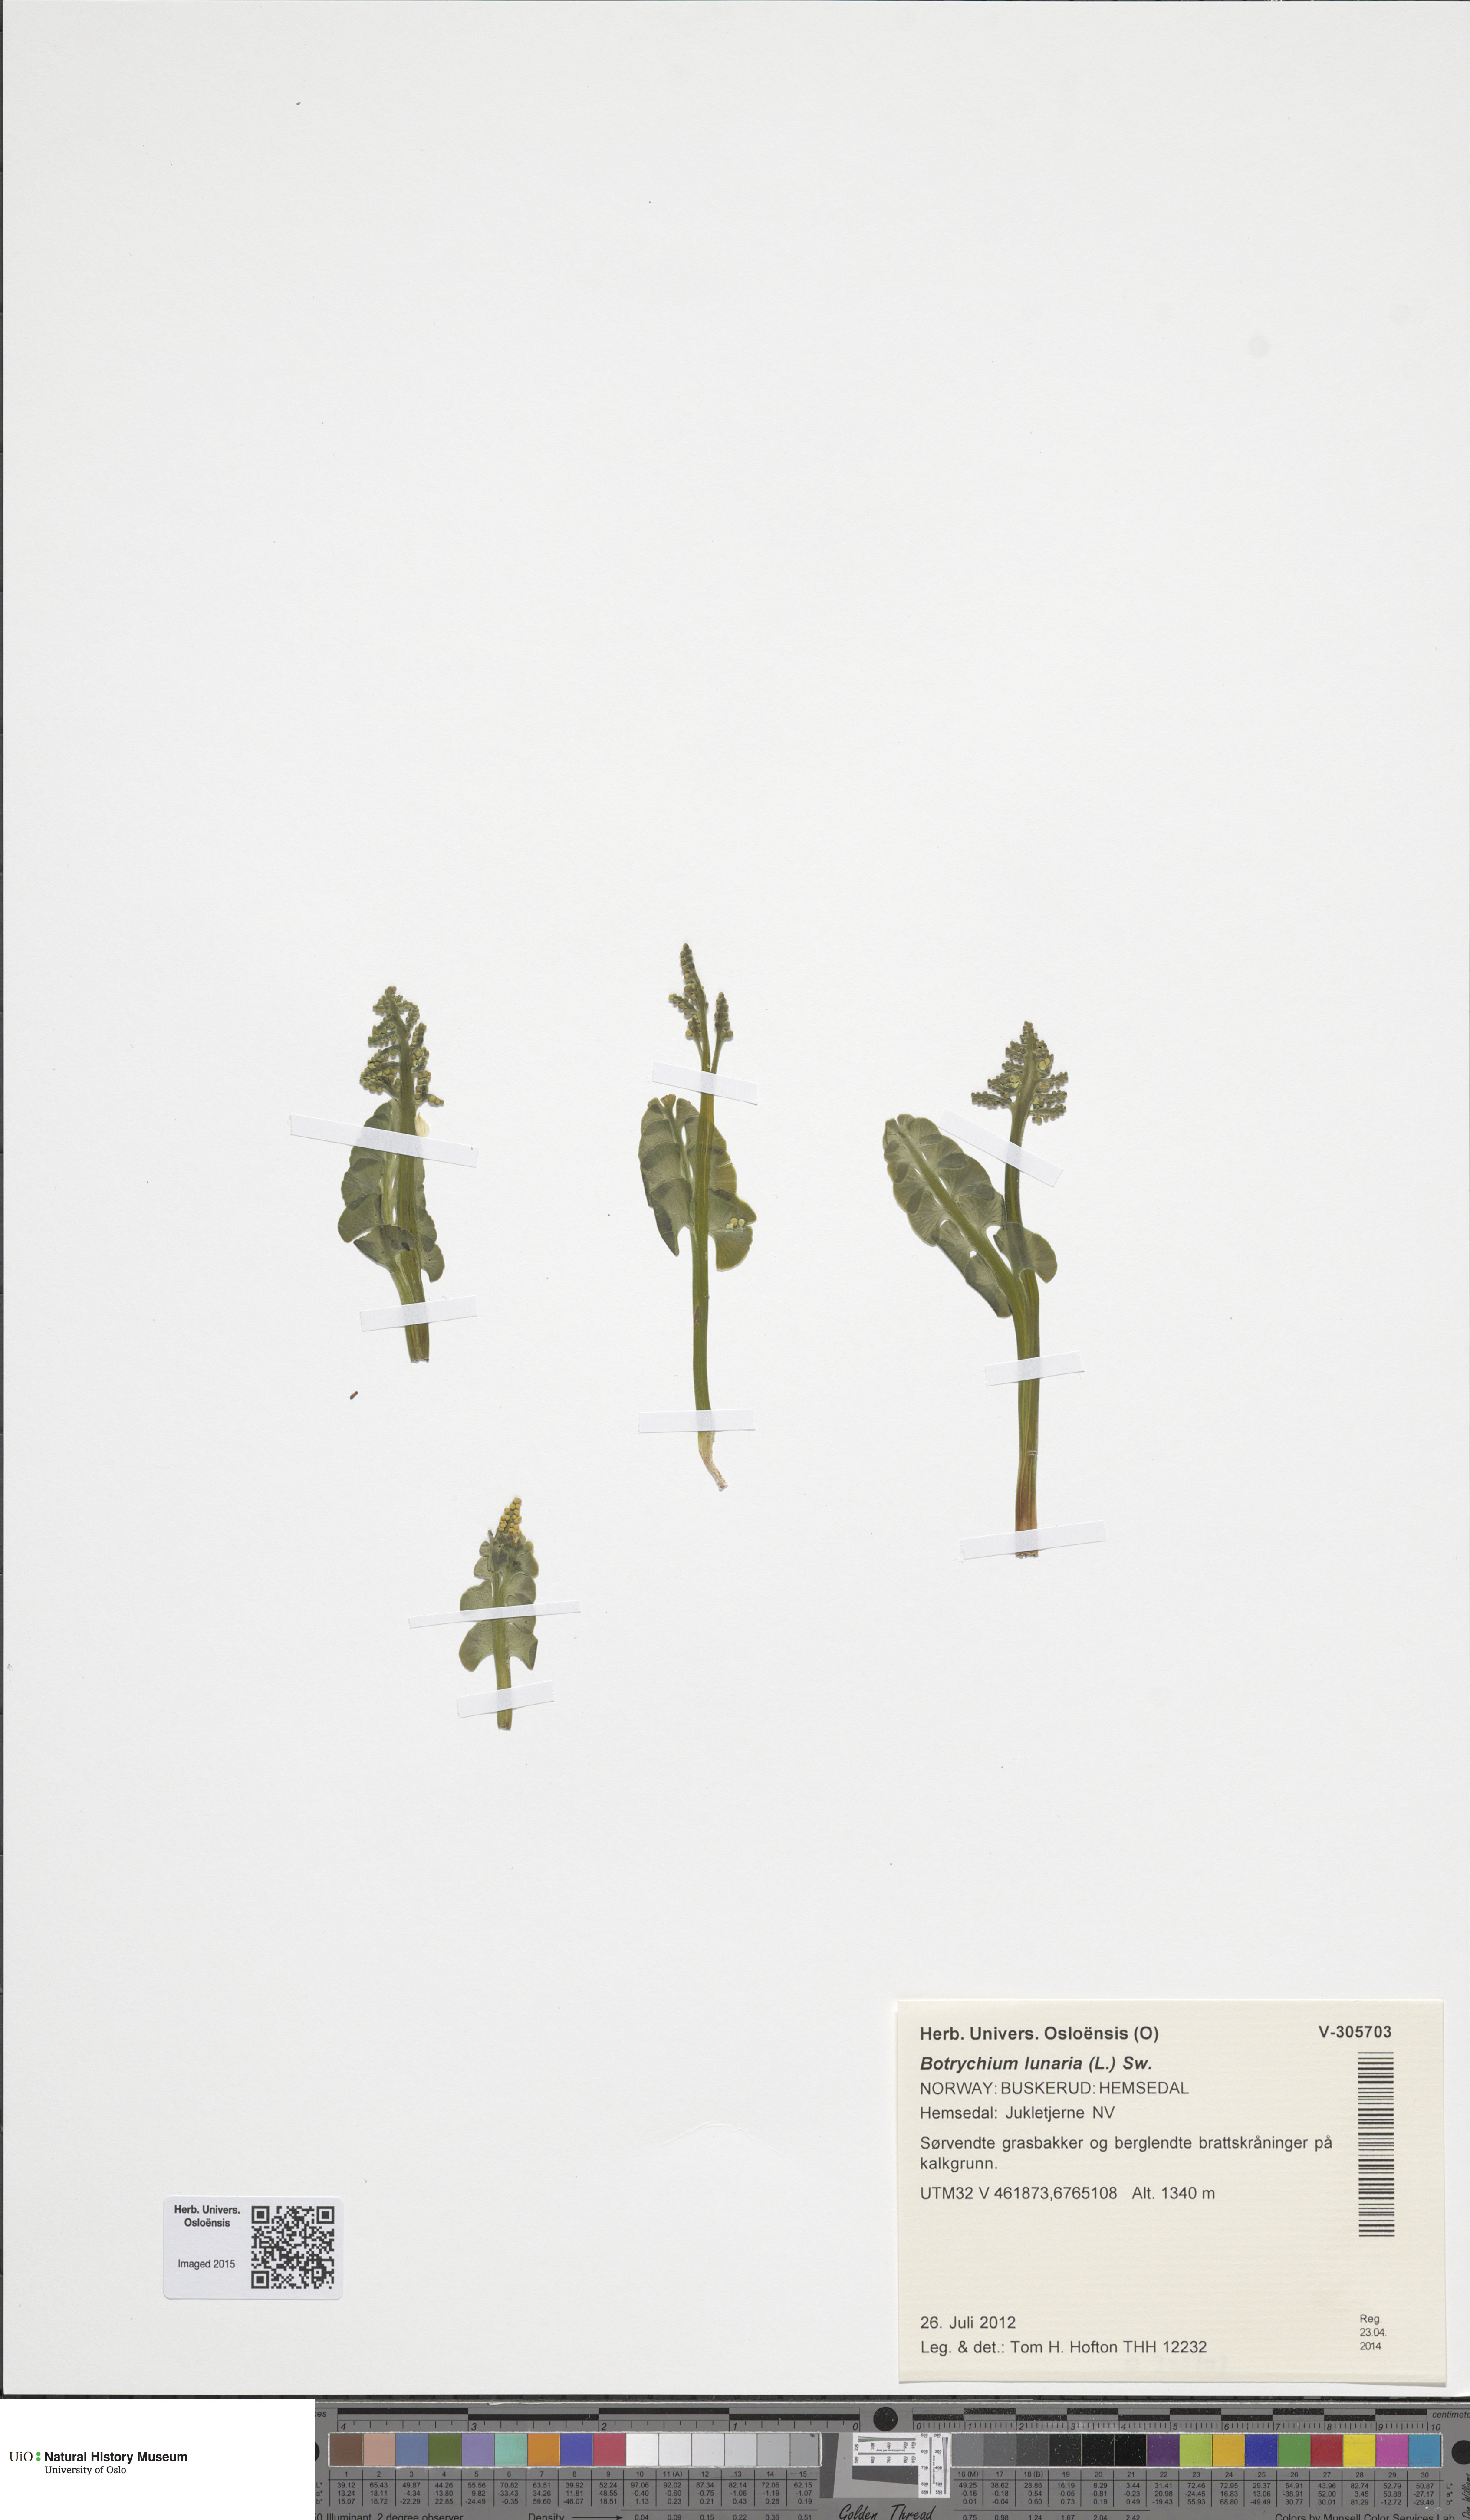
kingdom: Plantae
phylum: Tracheophyta
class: Polypodiopsida
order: Ophioglossales
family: Ophioglossaceae
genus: Botrychium
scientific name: Botrychium lunaria
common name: Moonwort
